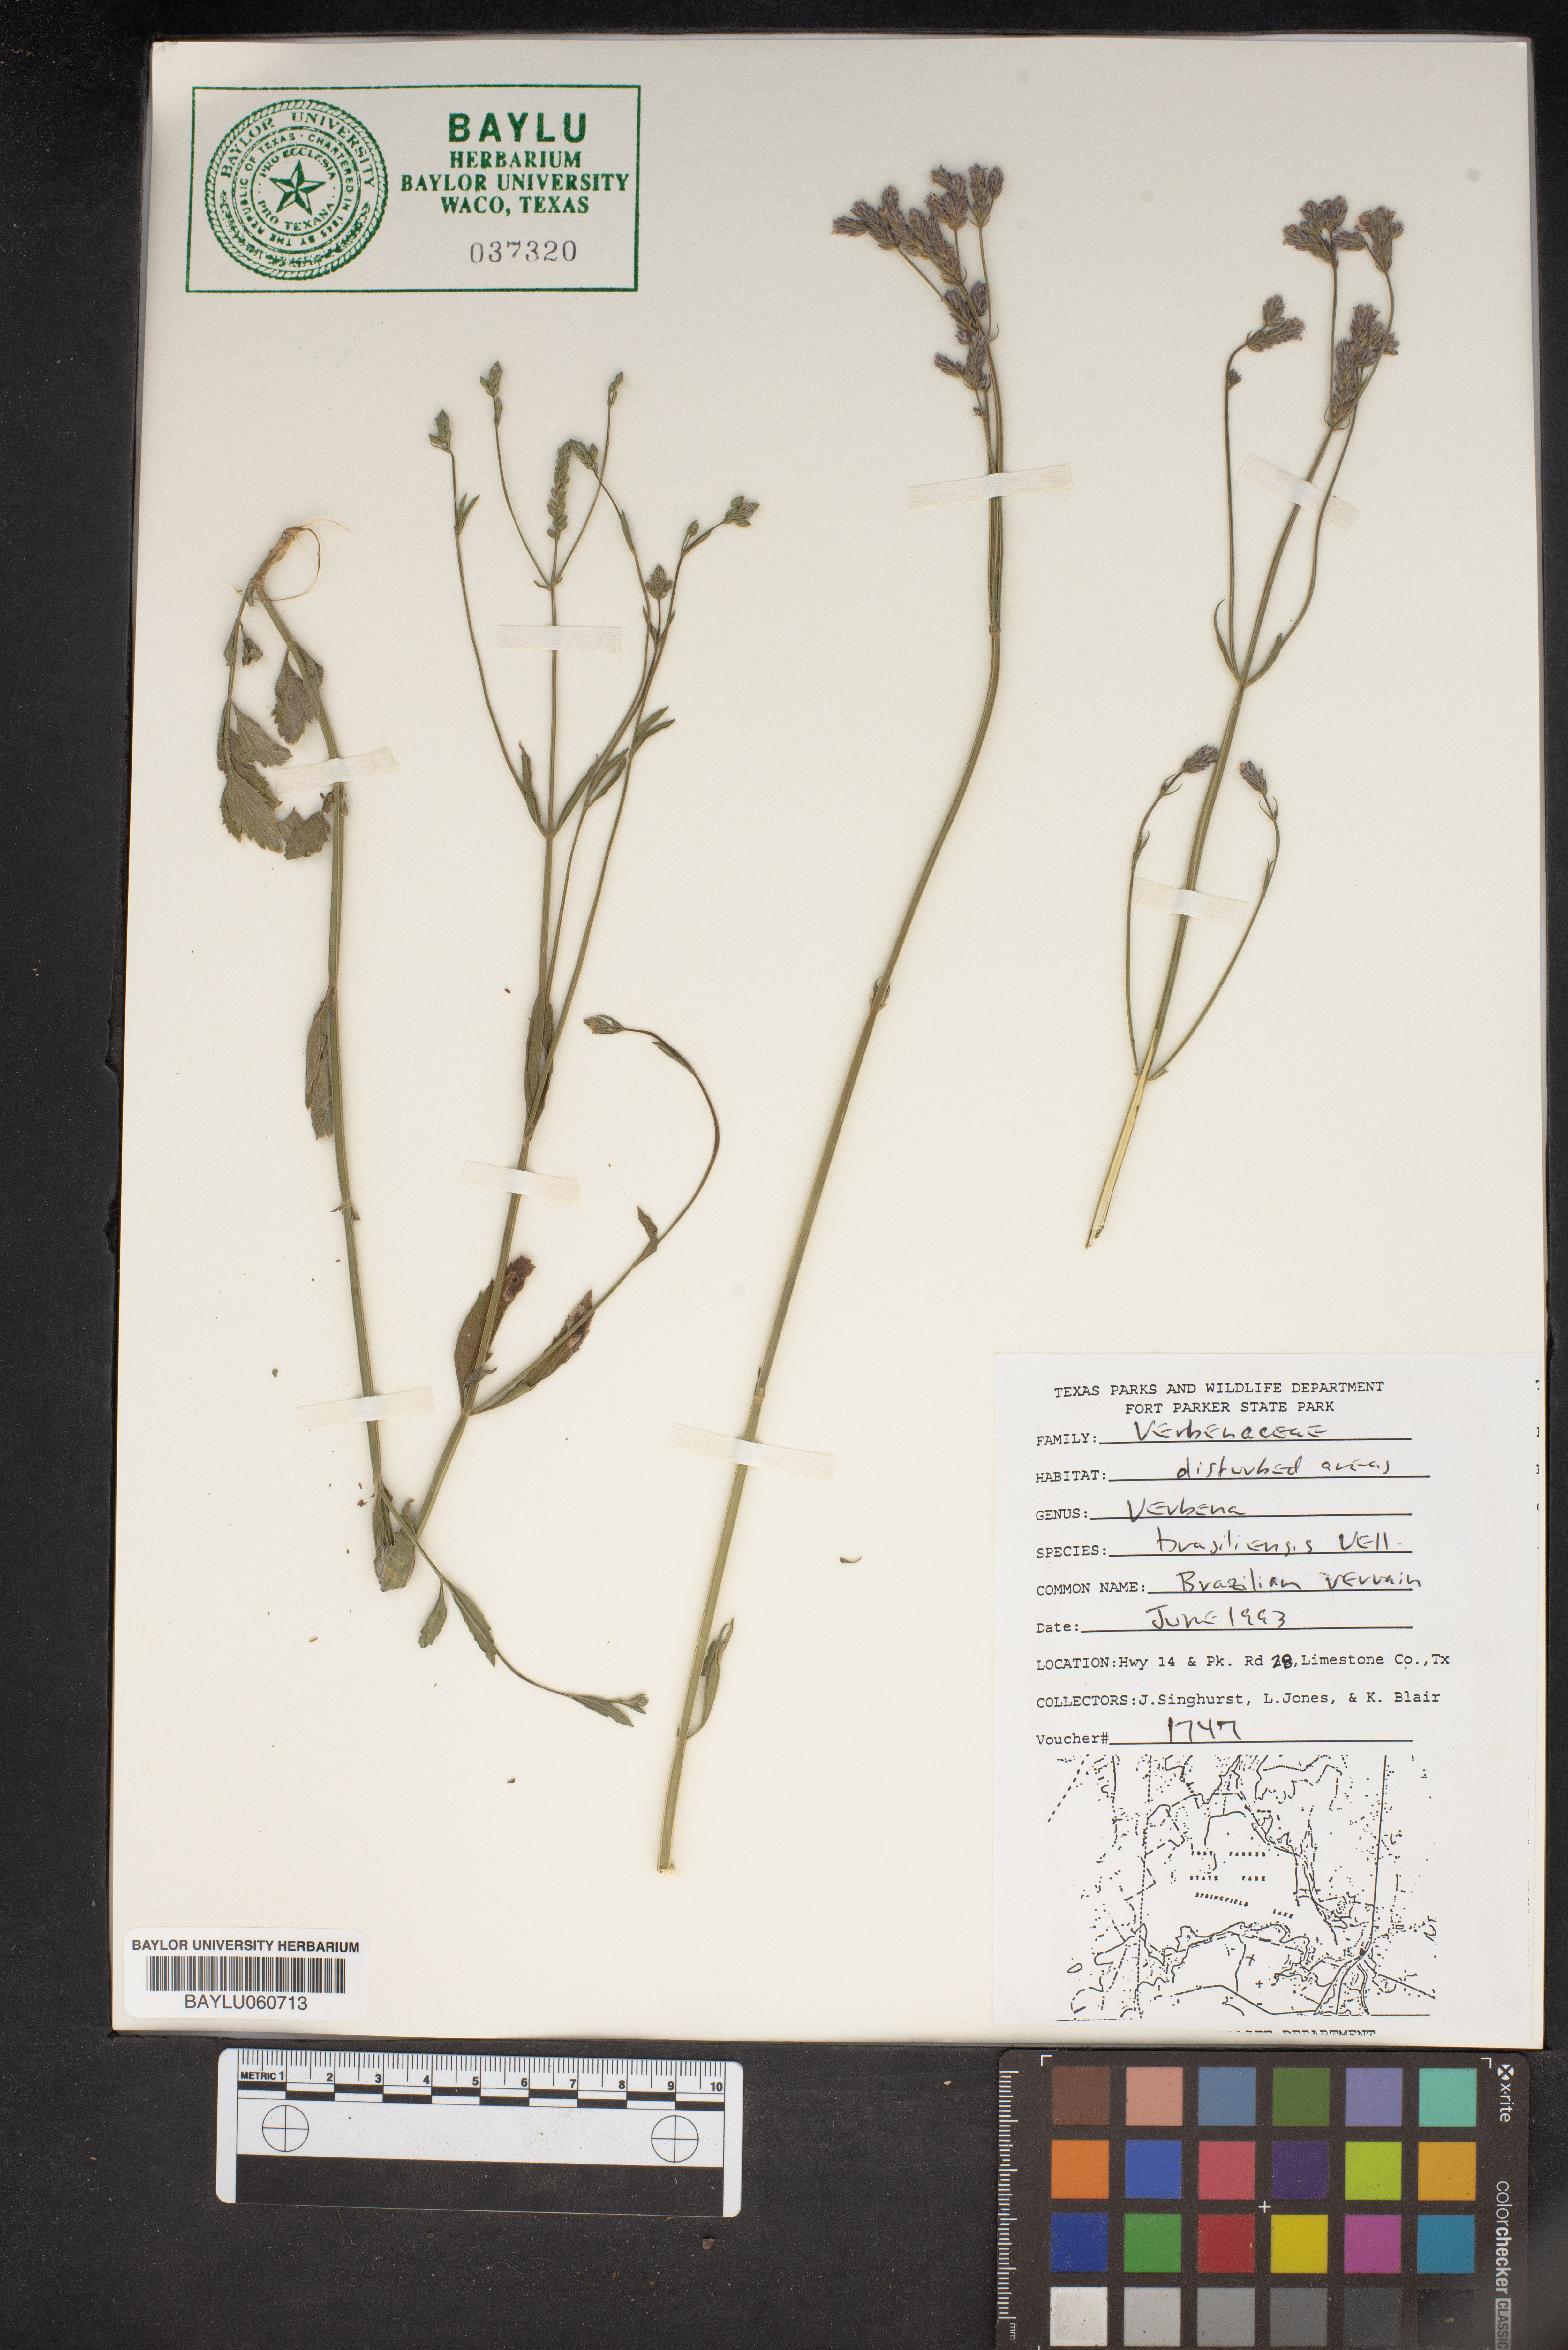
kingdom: Plantae
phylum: Tracheophyta
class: Magnoliopsida
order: Lamiales
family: Verbenaceae
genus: Verbena
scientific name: Verbena brasiliensis
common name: Brazilian vervain
